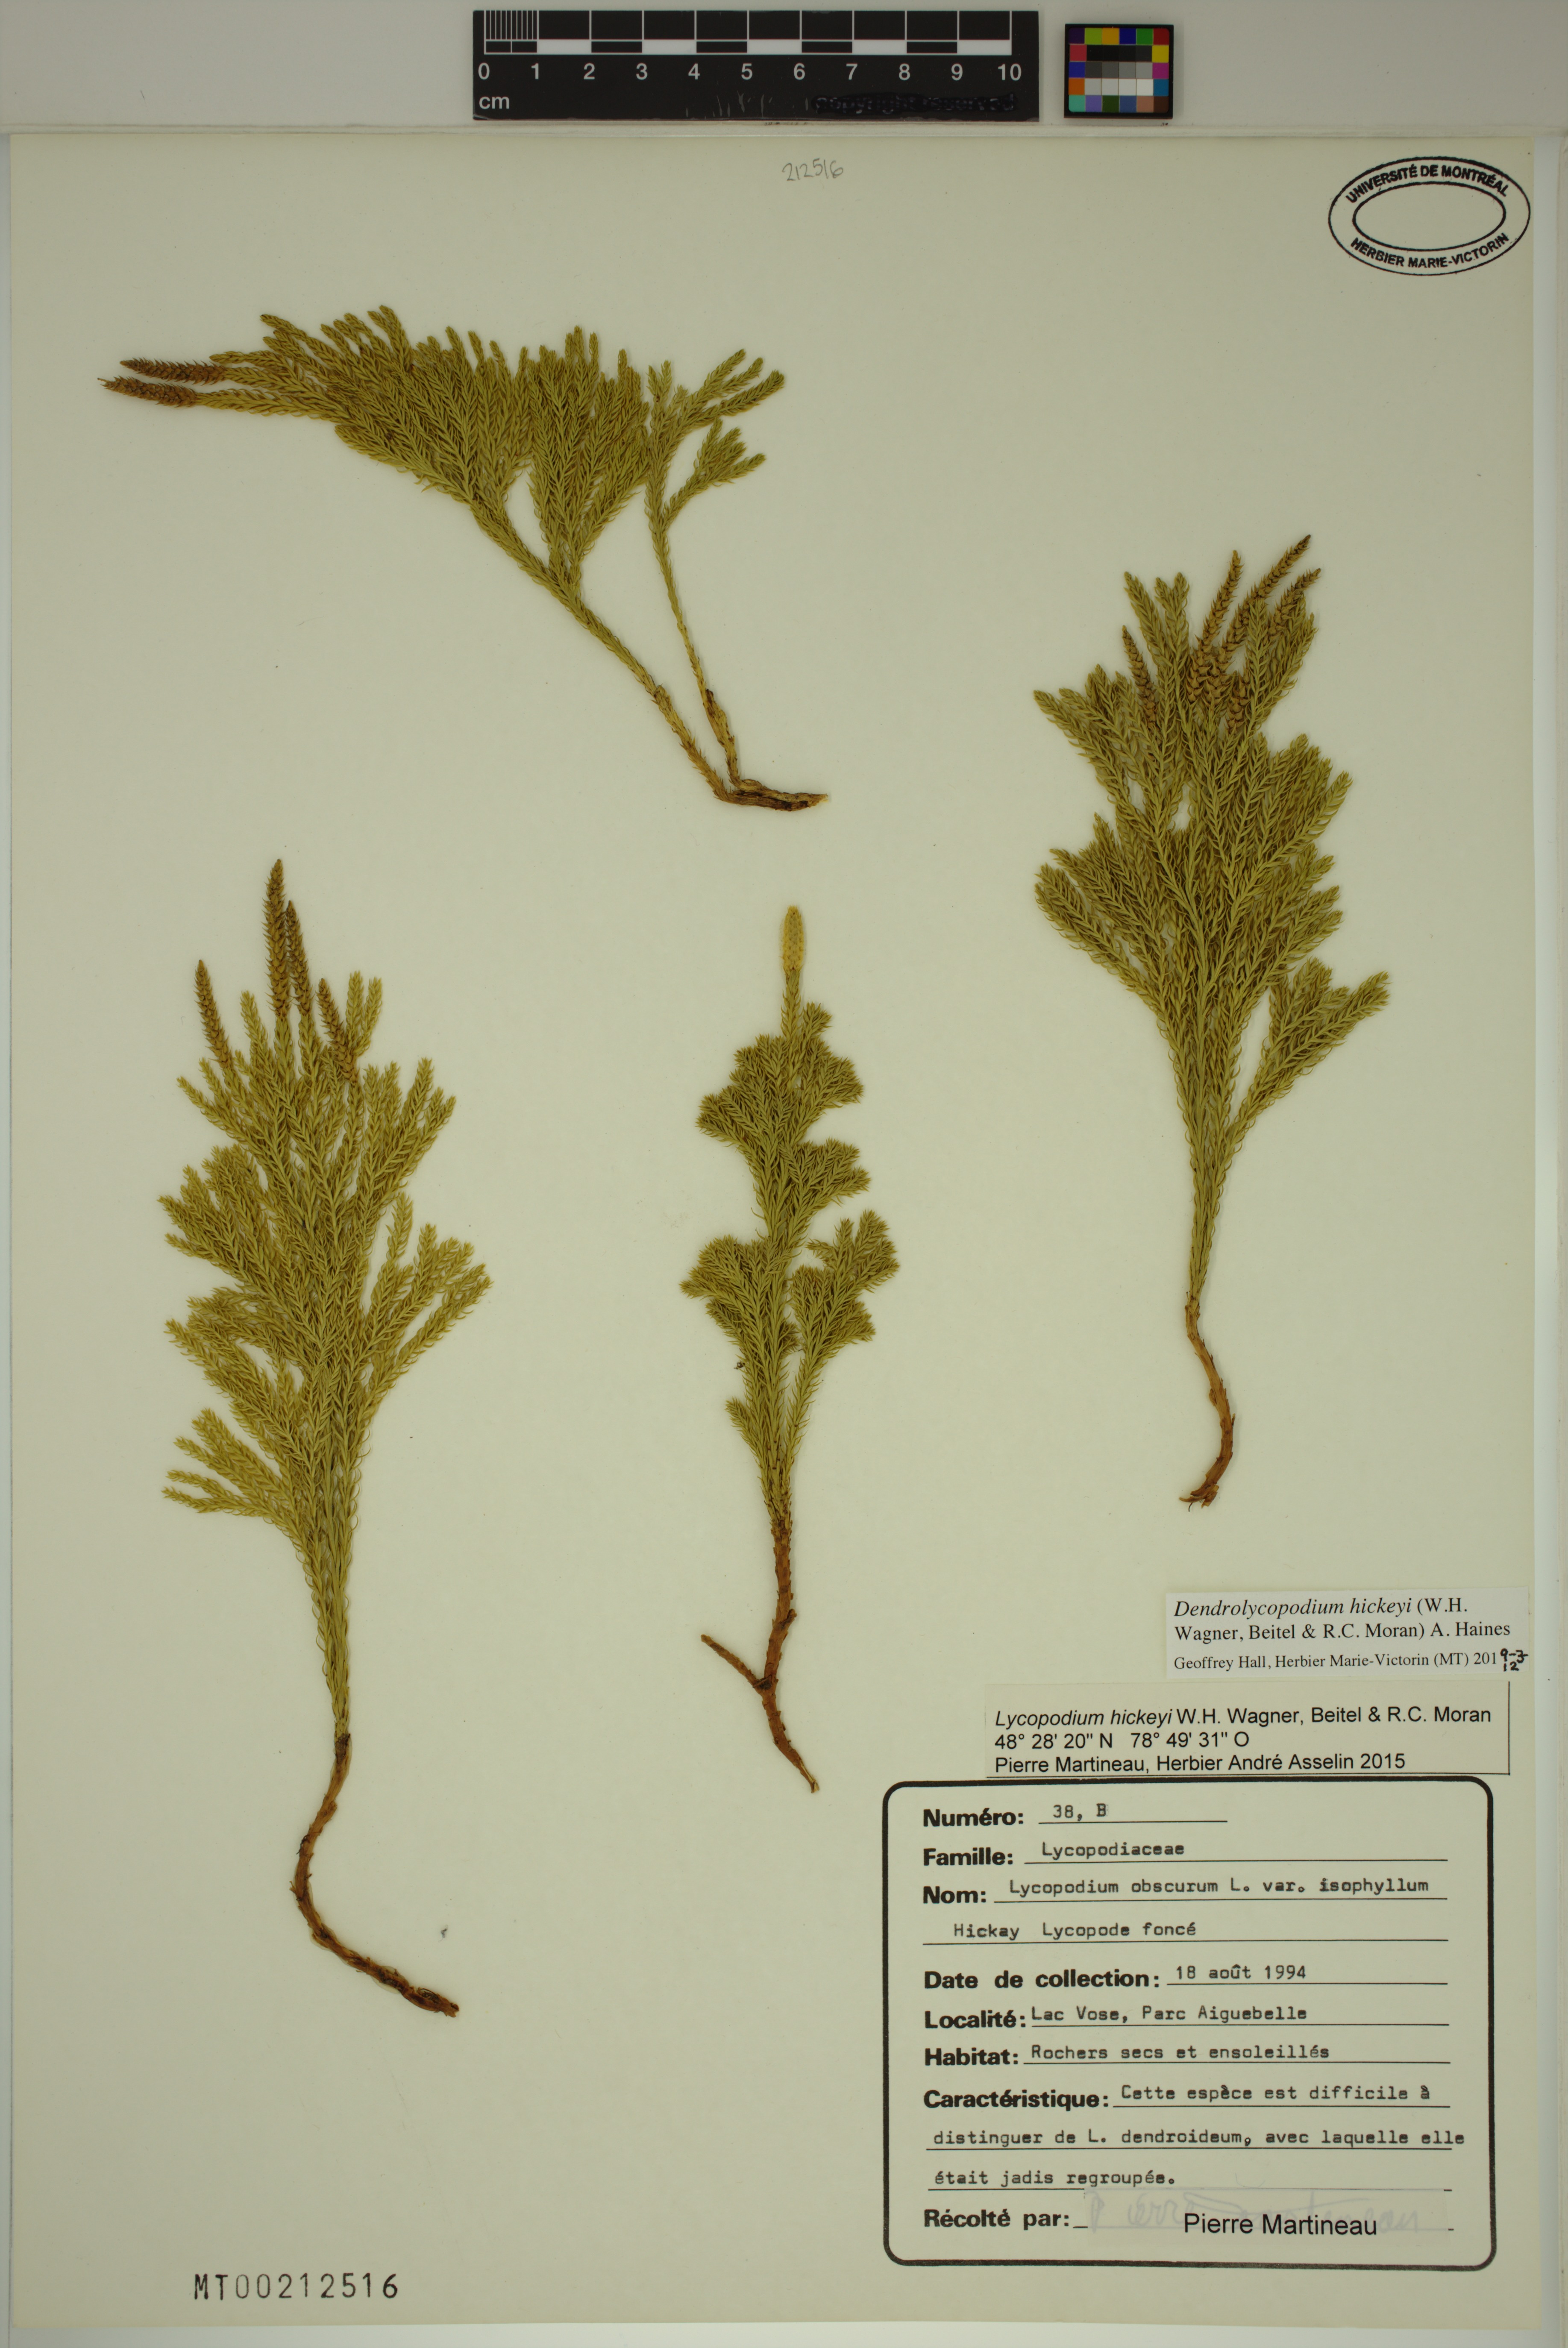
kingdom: Plantae
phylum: Tracheophyta
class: Lycopodiopsida
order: Lycopodiales
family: Lycopodiaceae
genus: Dendrolycopodium
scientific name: Dendrolycopodium hickeyi
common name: Hickey's clubmoss
